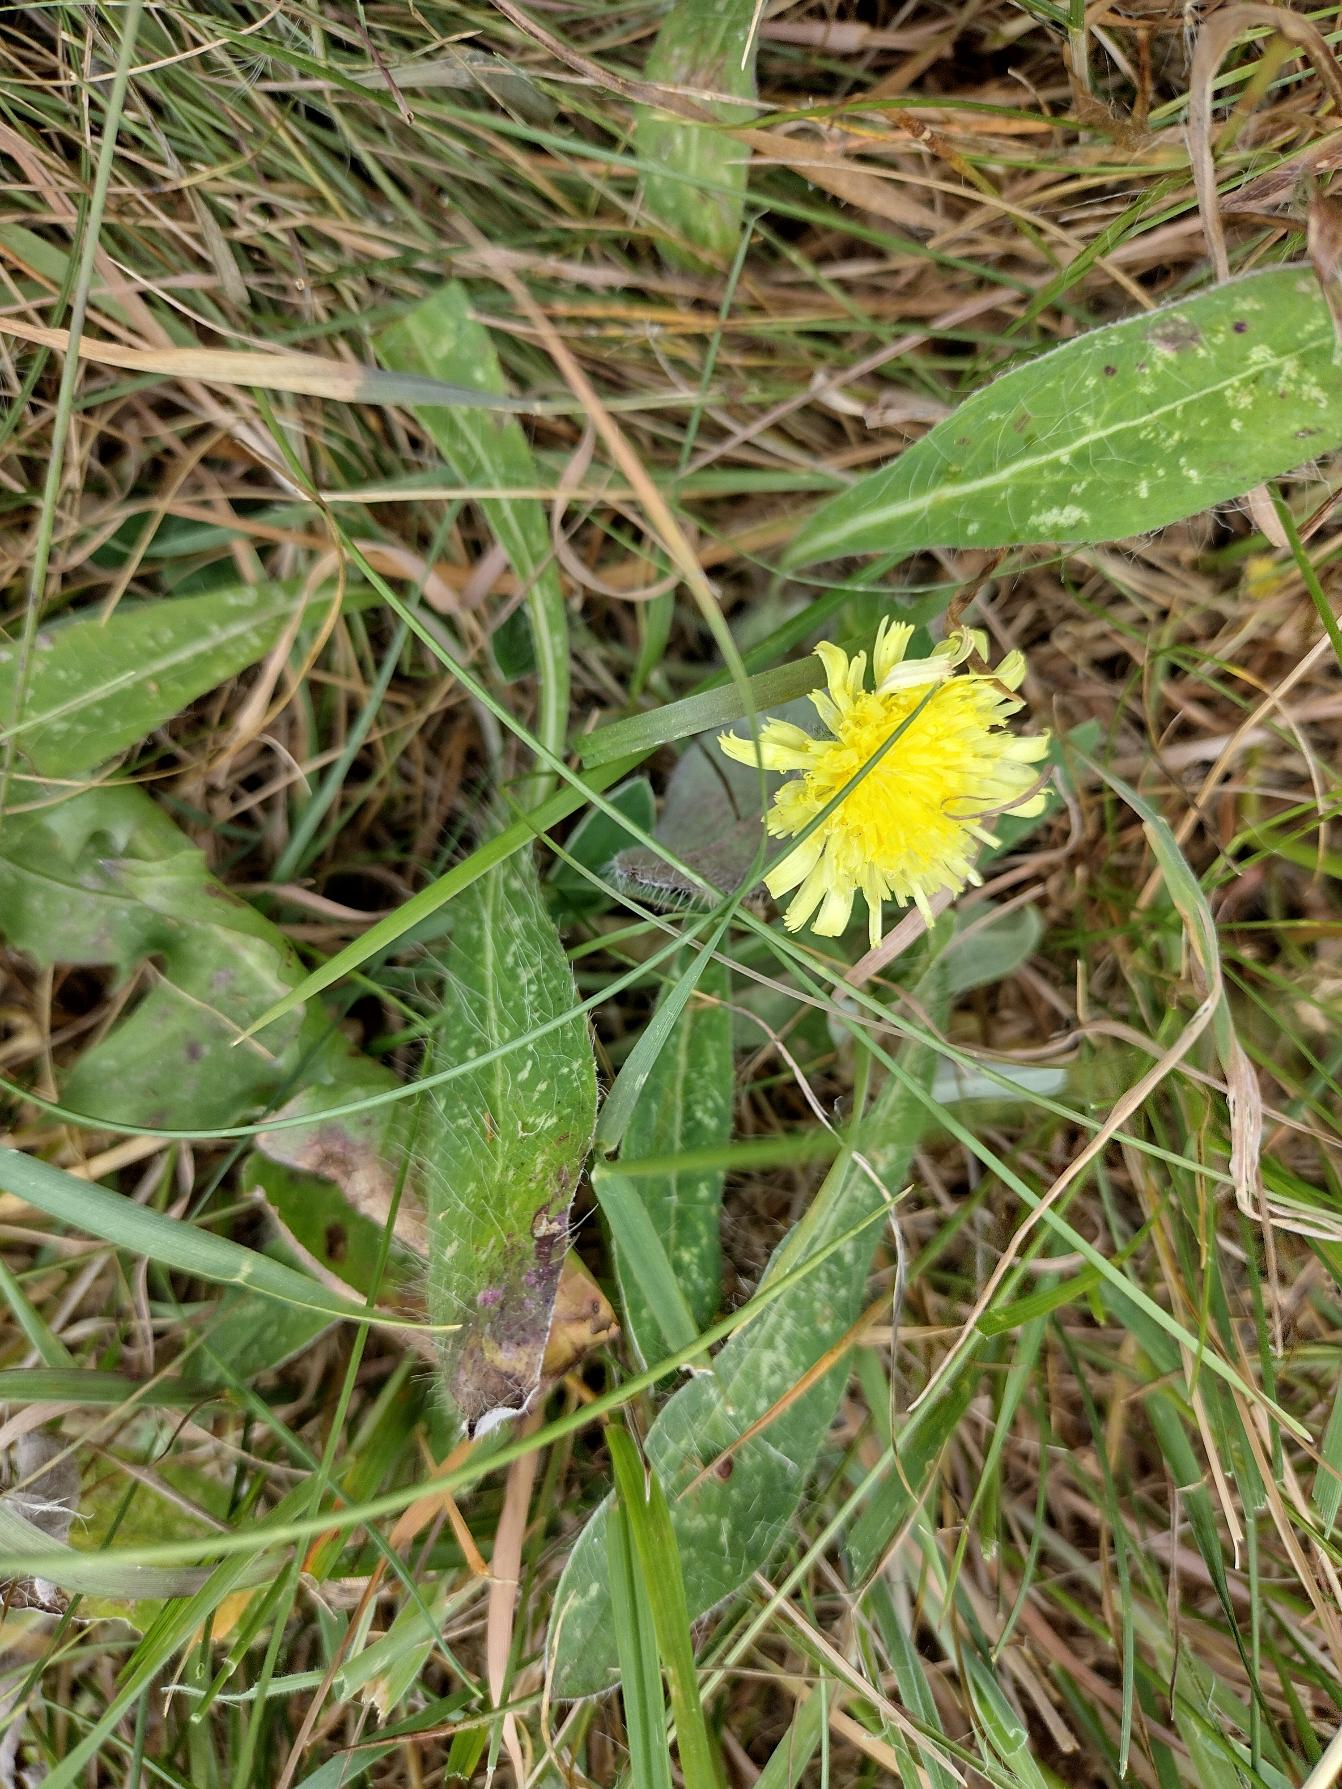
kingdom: Plantae
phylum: Tracheophyta
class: Magnoliopsida
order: Asterales
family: Asteraceae
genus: Pilosella
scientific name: Pilosella officinarum
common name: Håret høgeurt
